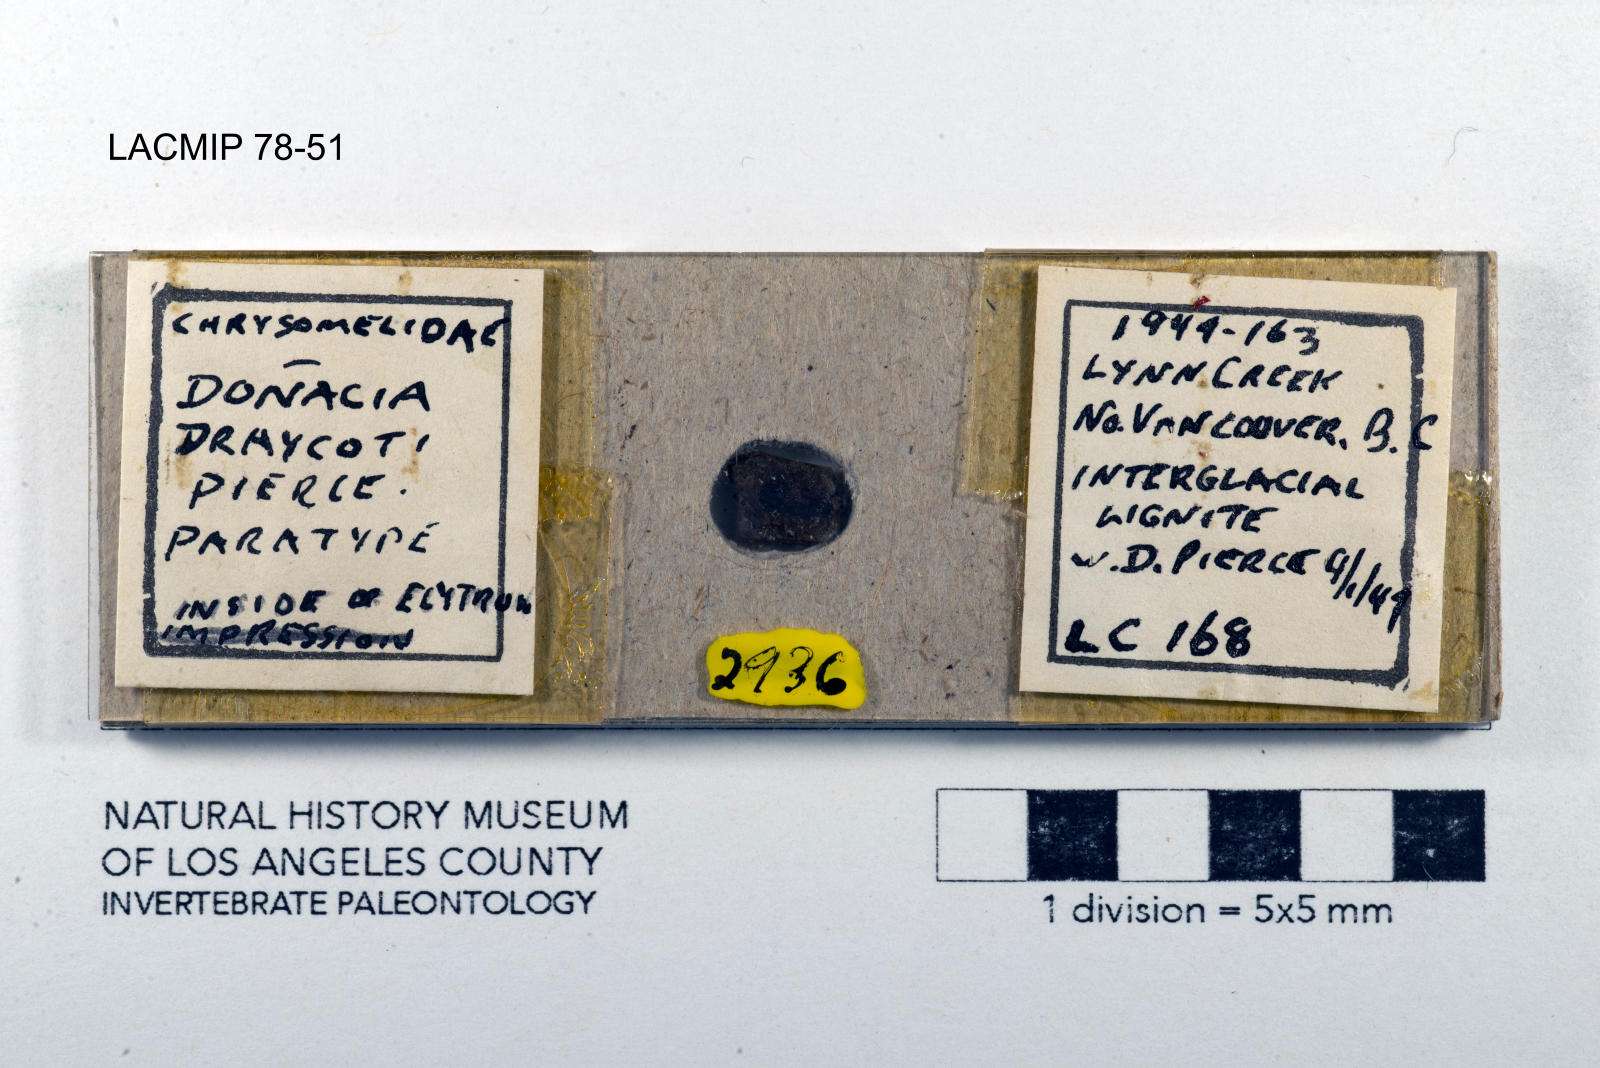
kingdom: Animalia
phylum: Arthropoda
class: Insecta
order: Coleoptera
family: Chrysomelidae
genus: Donacia
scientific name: Donacia draycoti
